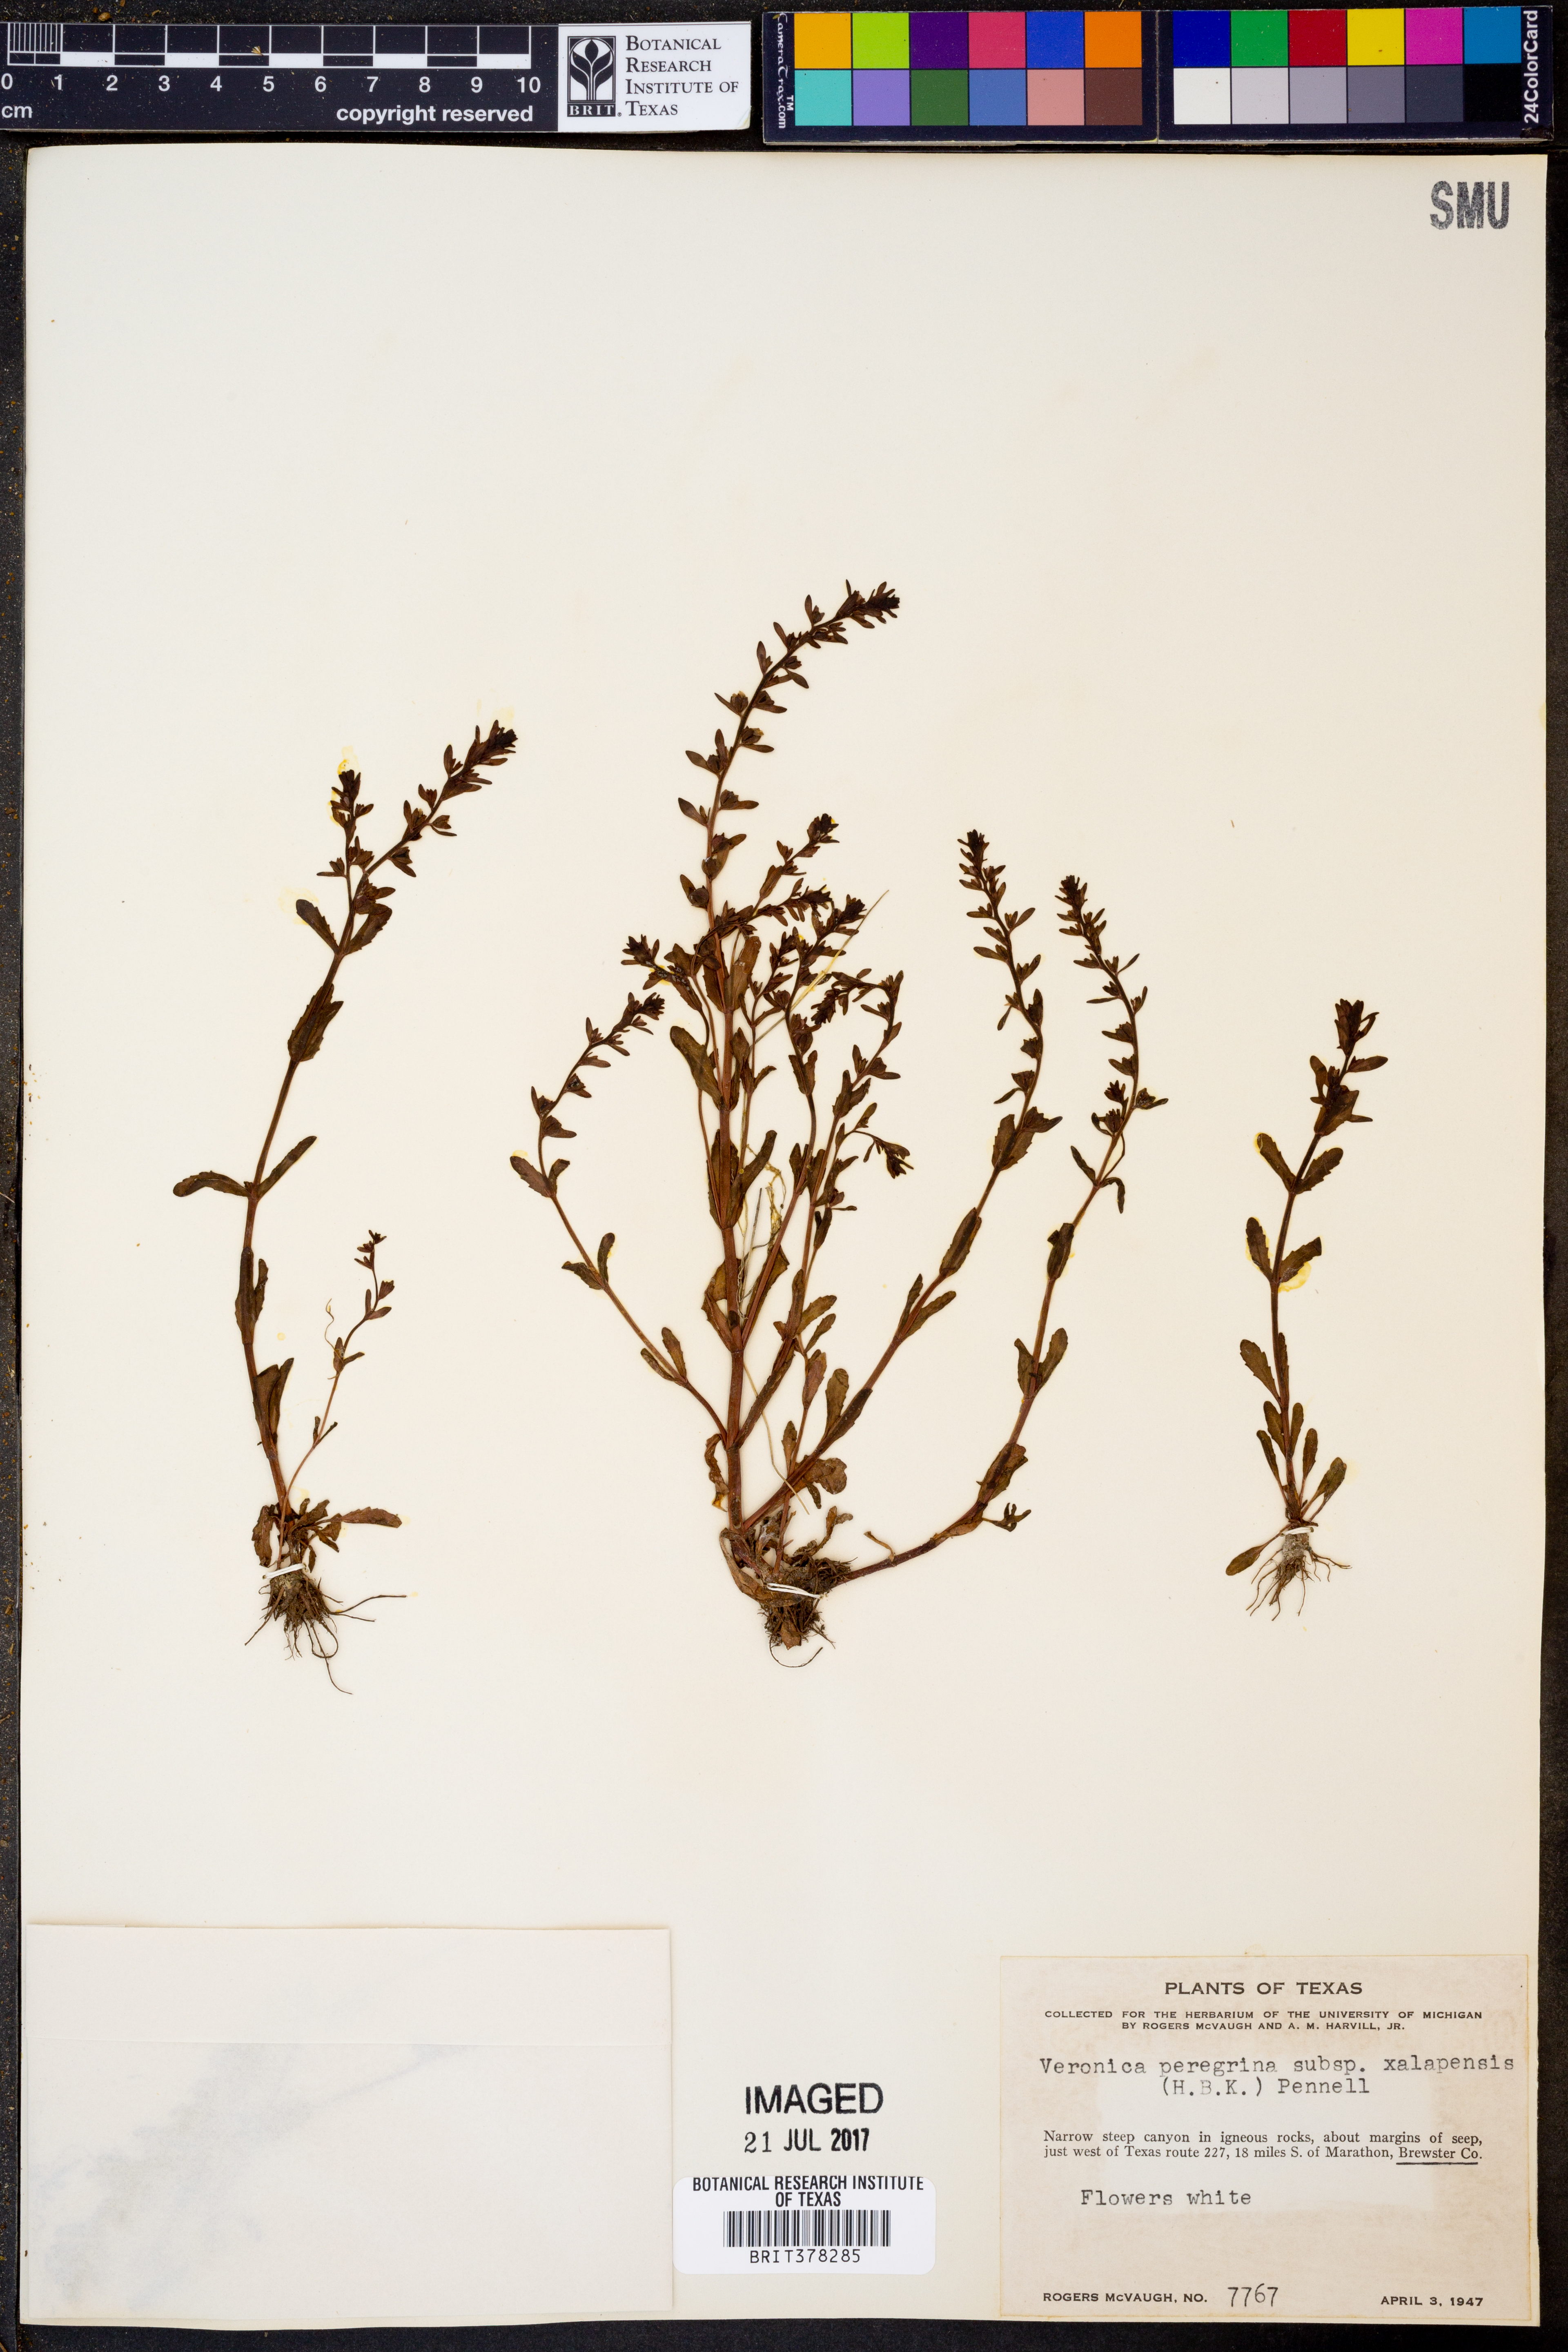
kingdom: Plantae
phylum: Tracheophyta
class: Magnoliopsida
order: Lamiales
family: Plantaginaceae
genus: Veronica
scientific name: Veronica peregrina
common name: Neckweed
